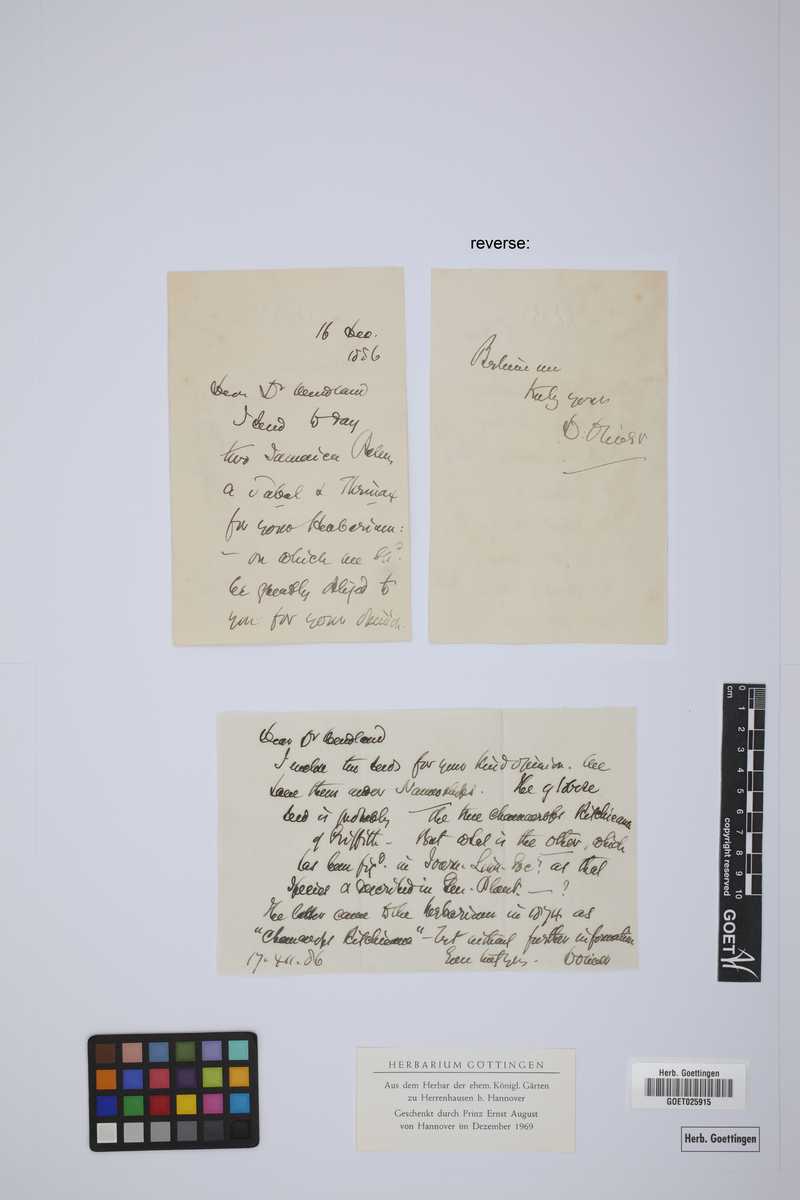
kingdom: Plantae
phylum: Tracheophyta
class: Liliopsida
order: Arecales
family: Arecaceae
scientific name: Arecaceae
